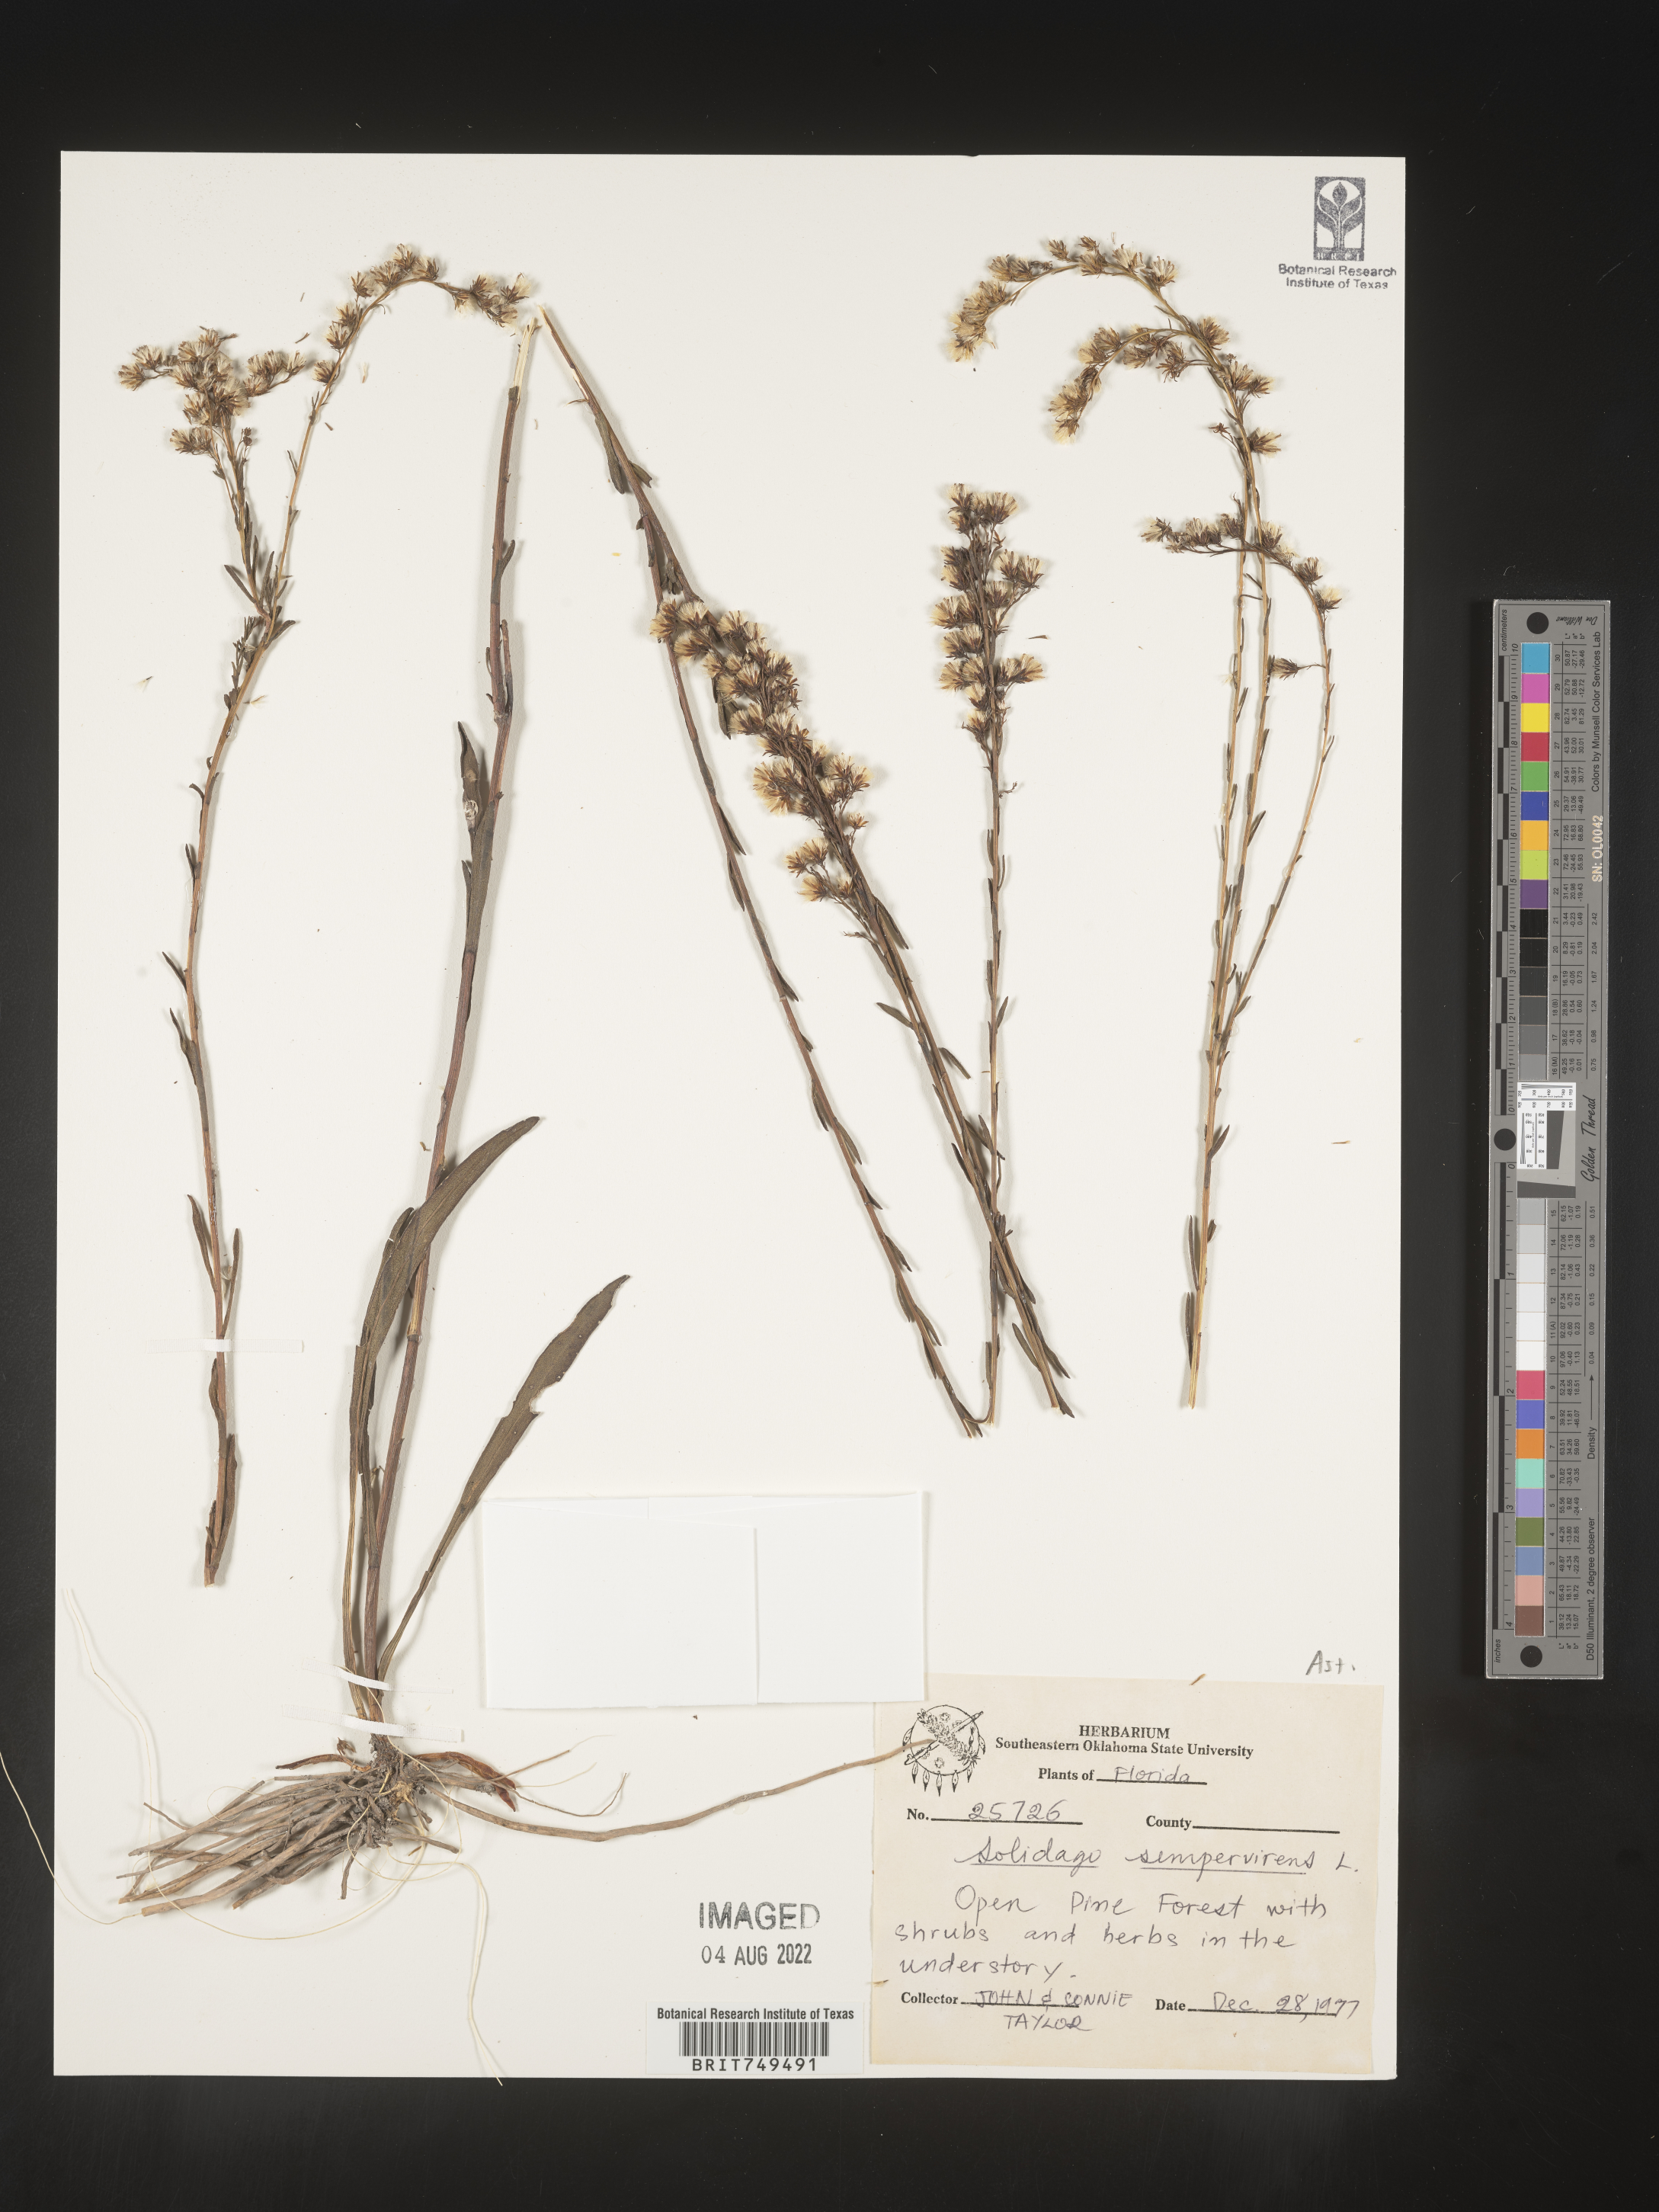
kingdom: Plantae
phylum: Tracheophyta
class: Magnoliopsida
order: Asterales
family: Asteraceae
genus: Solidago
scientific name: Solidago stricta
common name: Pine barren bog goldenrod
